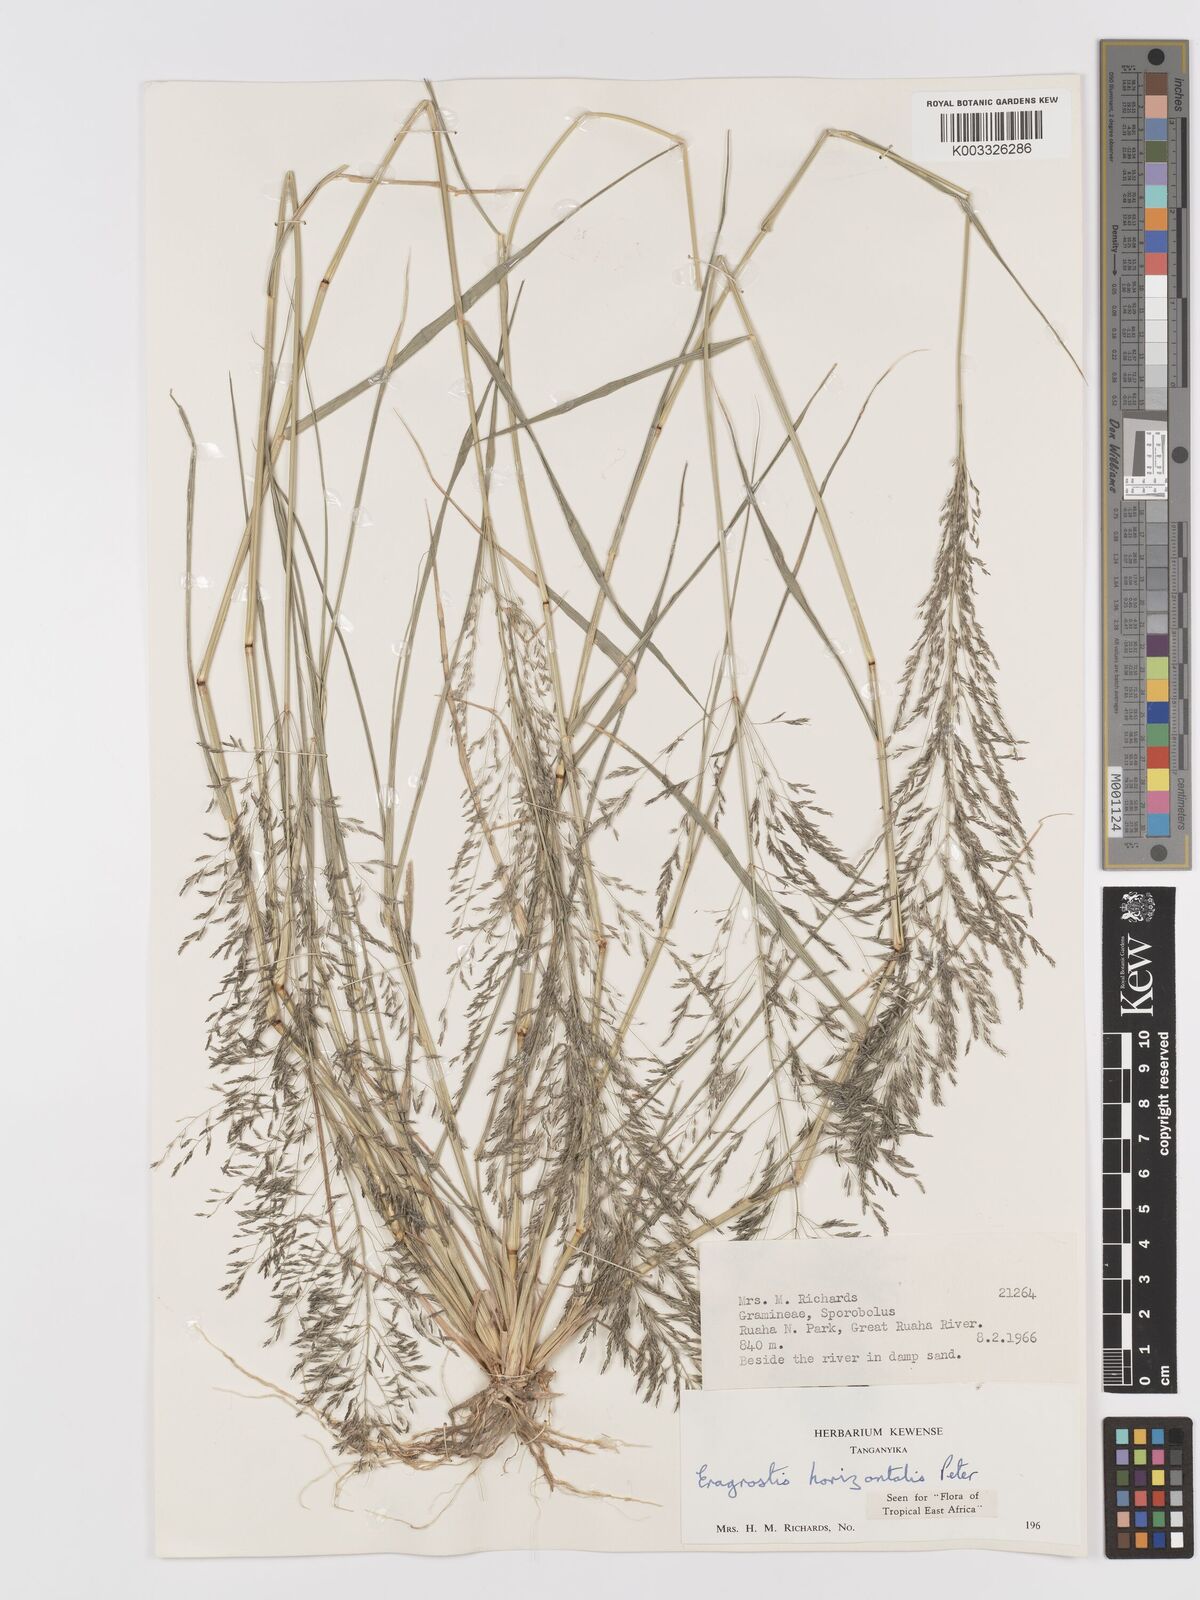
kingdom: Plantae
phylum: Tracheophyta
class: Liliopsida
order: Poales
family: Poaceae
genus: Eragrostis
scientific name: Eragrostis cylindriflora
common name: Cylinderflower lovegrass
